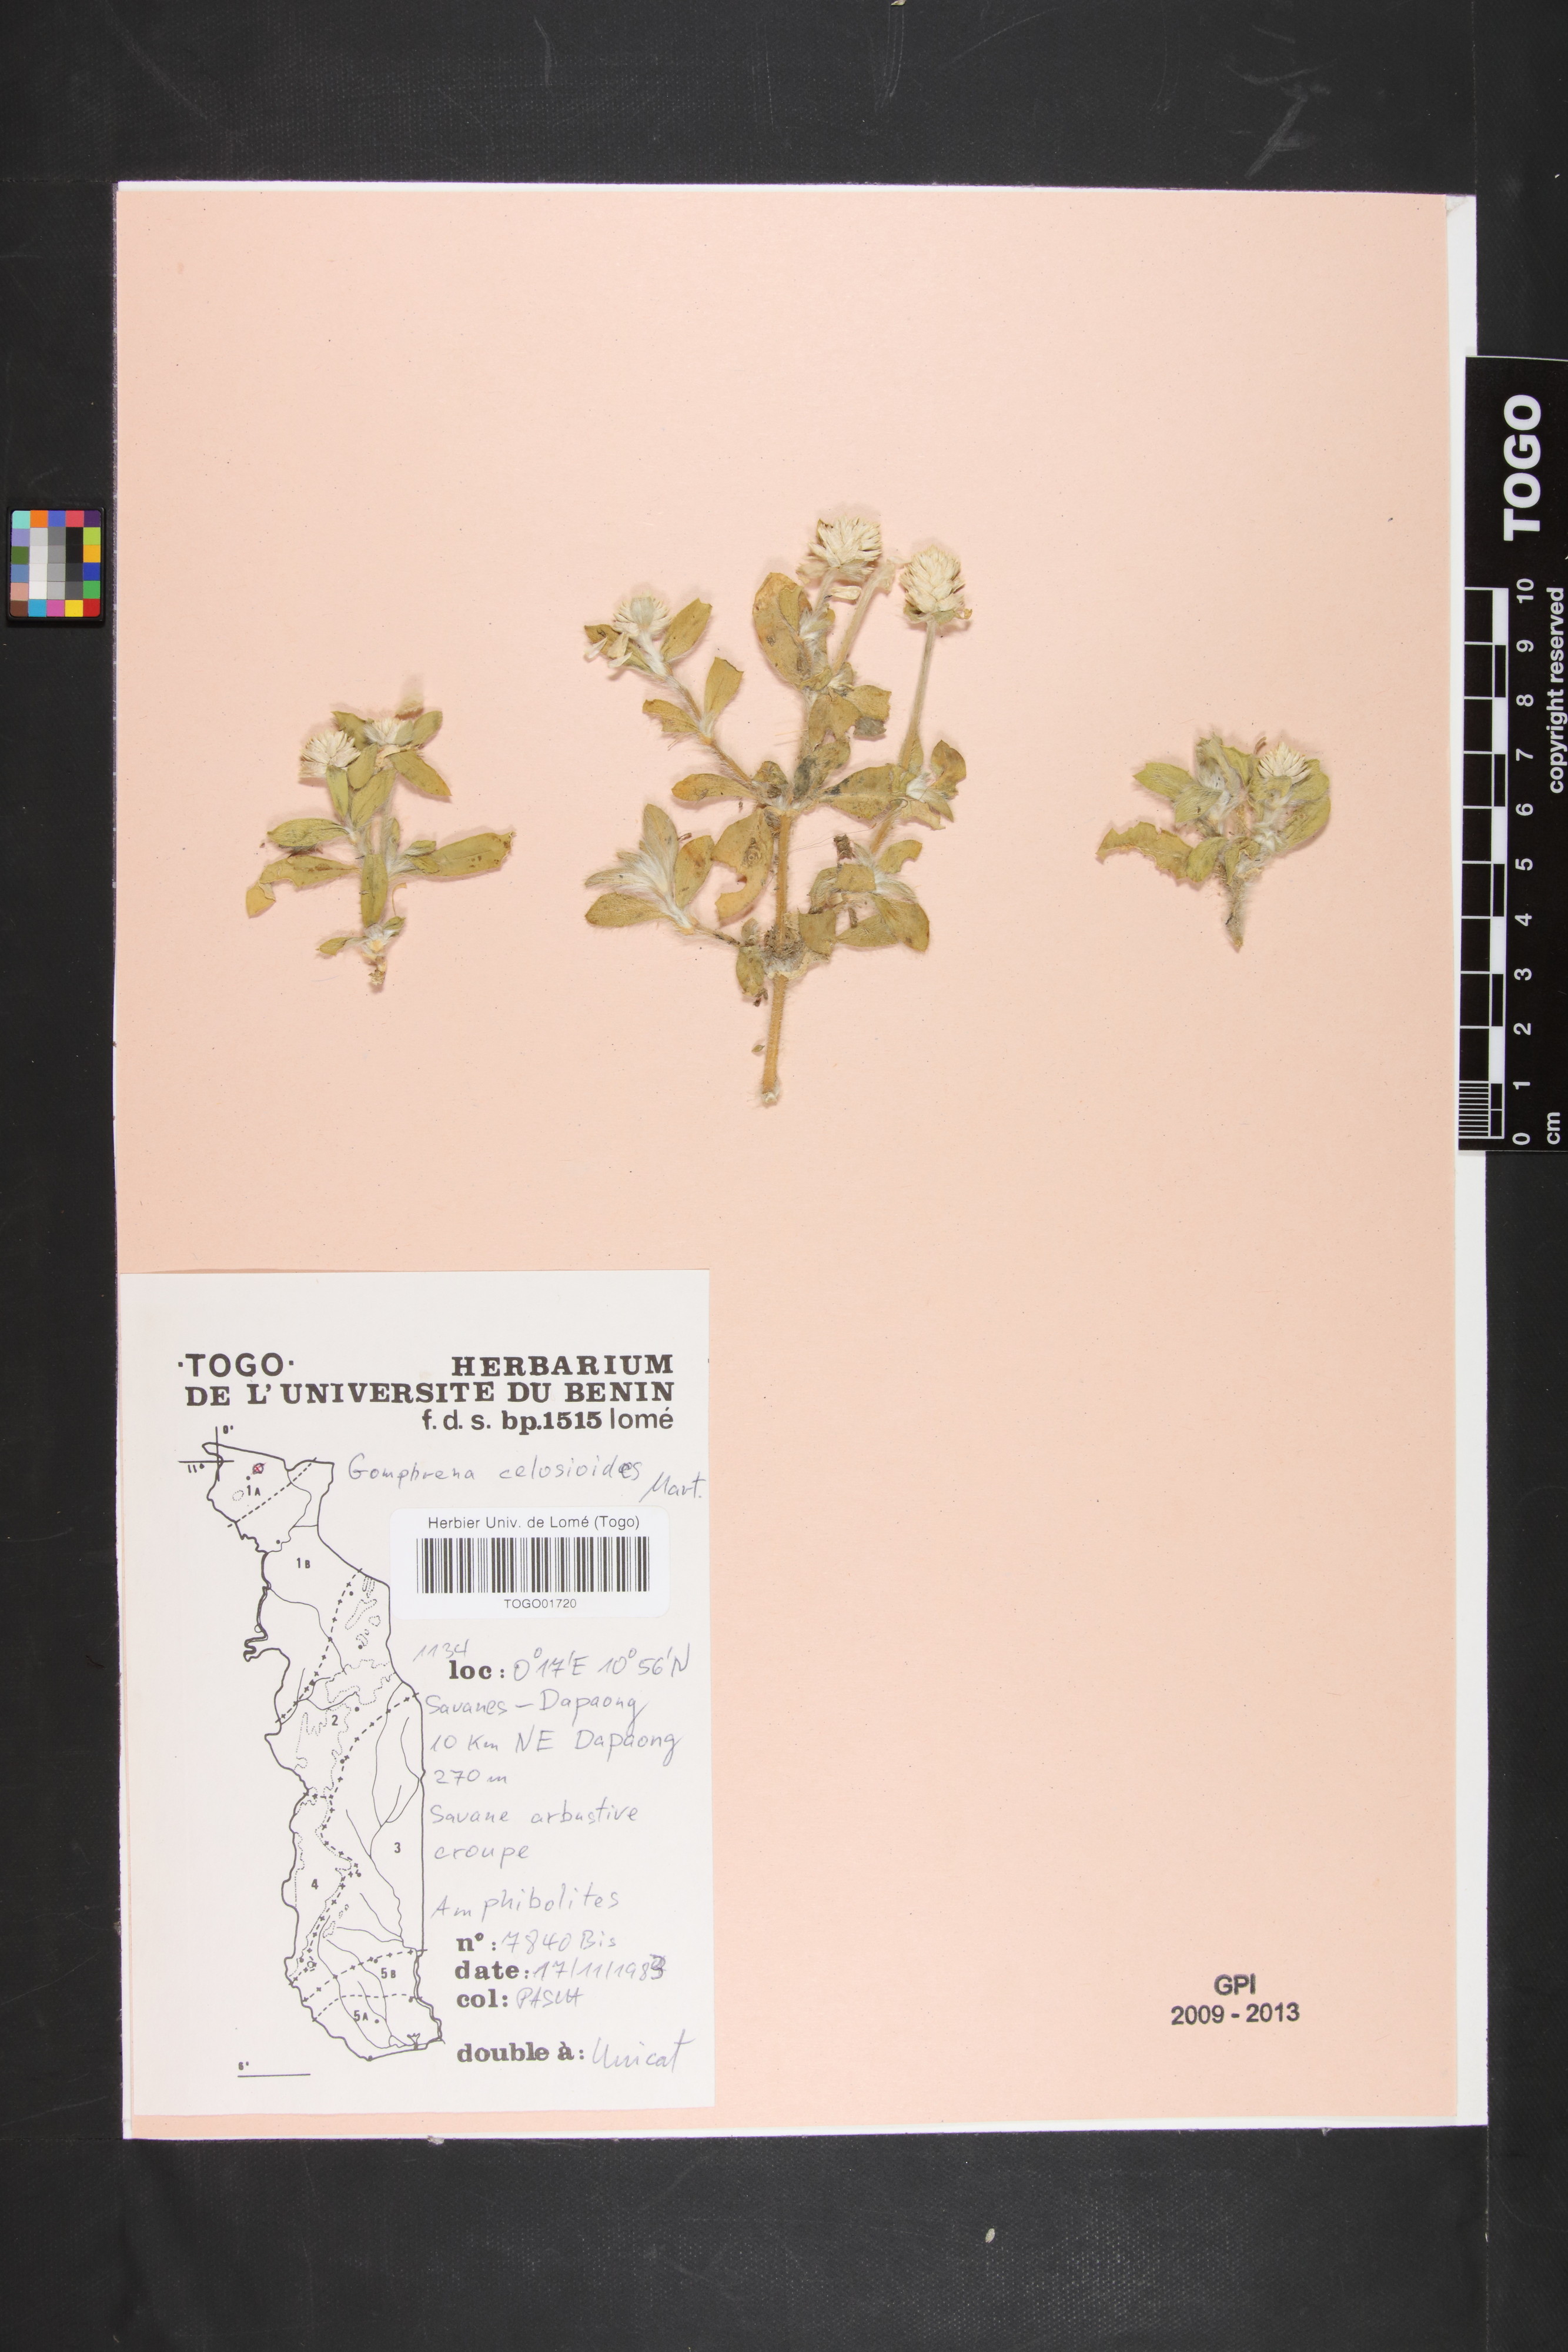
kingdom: Plantae
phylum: Tracheophyta
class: Magnoliopsida
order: Caryophyllales
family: Amaranthaceae
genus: Gomphrena
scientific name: Gomphrena celosioides
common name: Gomphrena-weed
